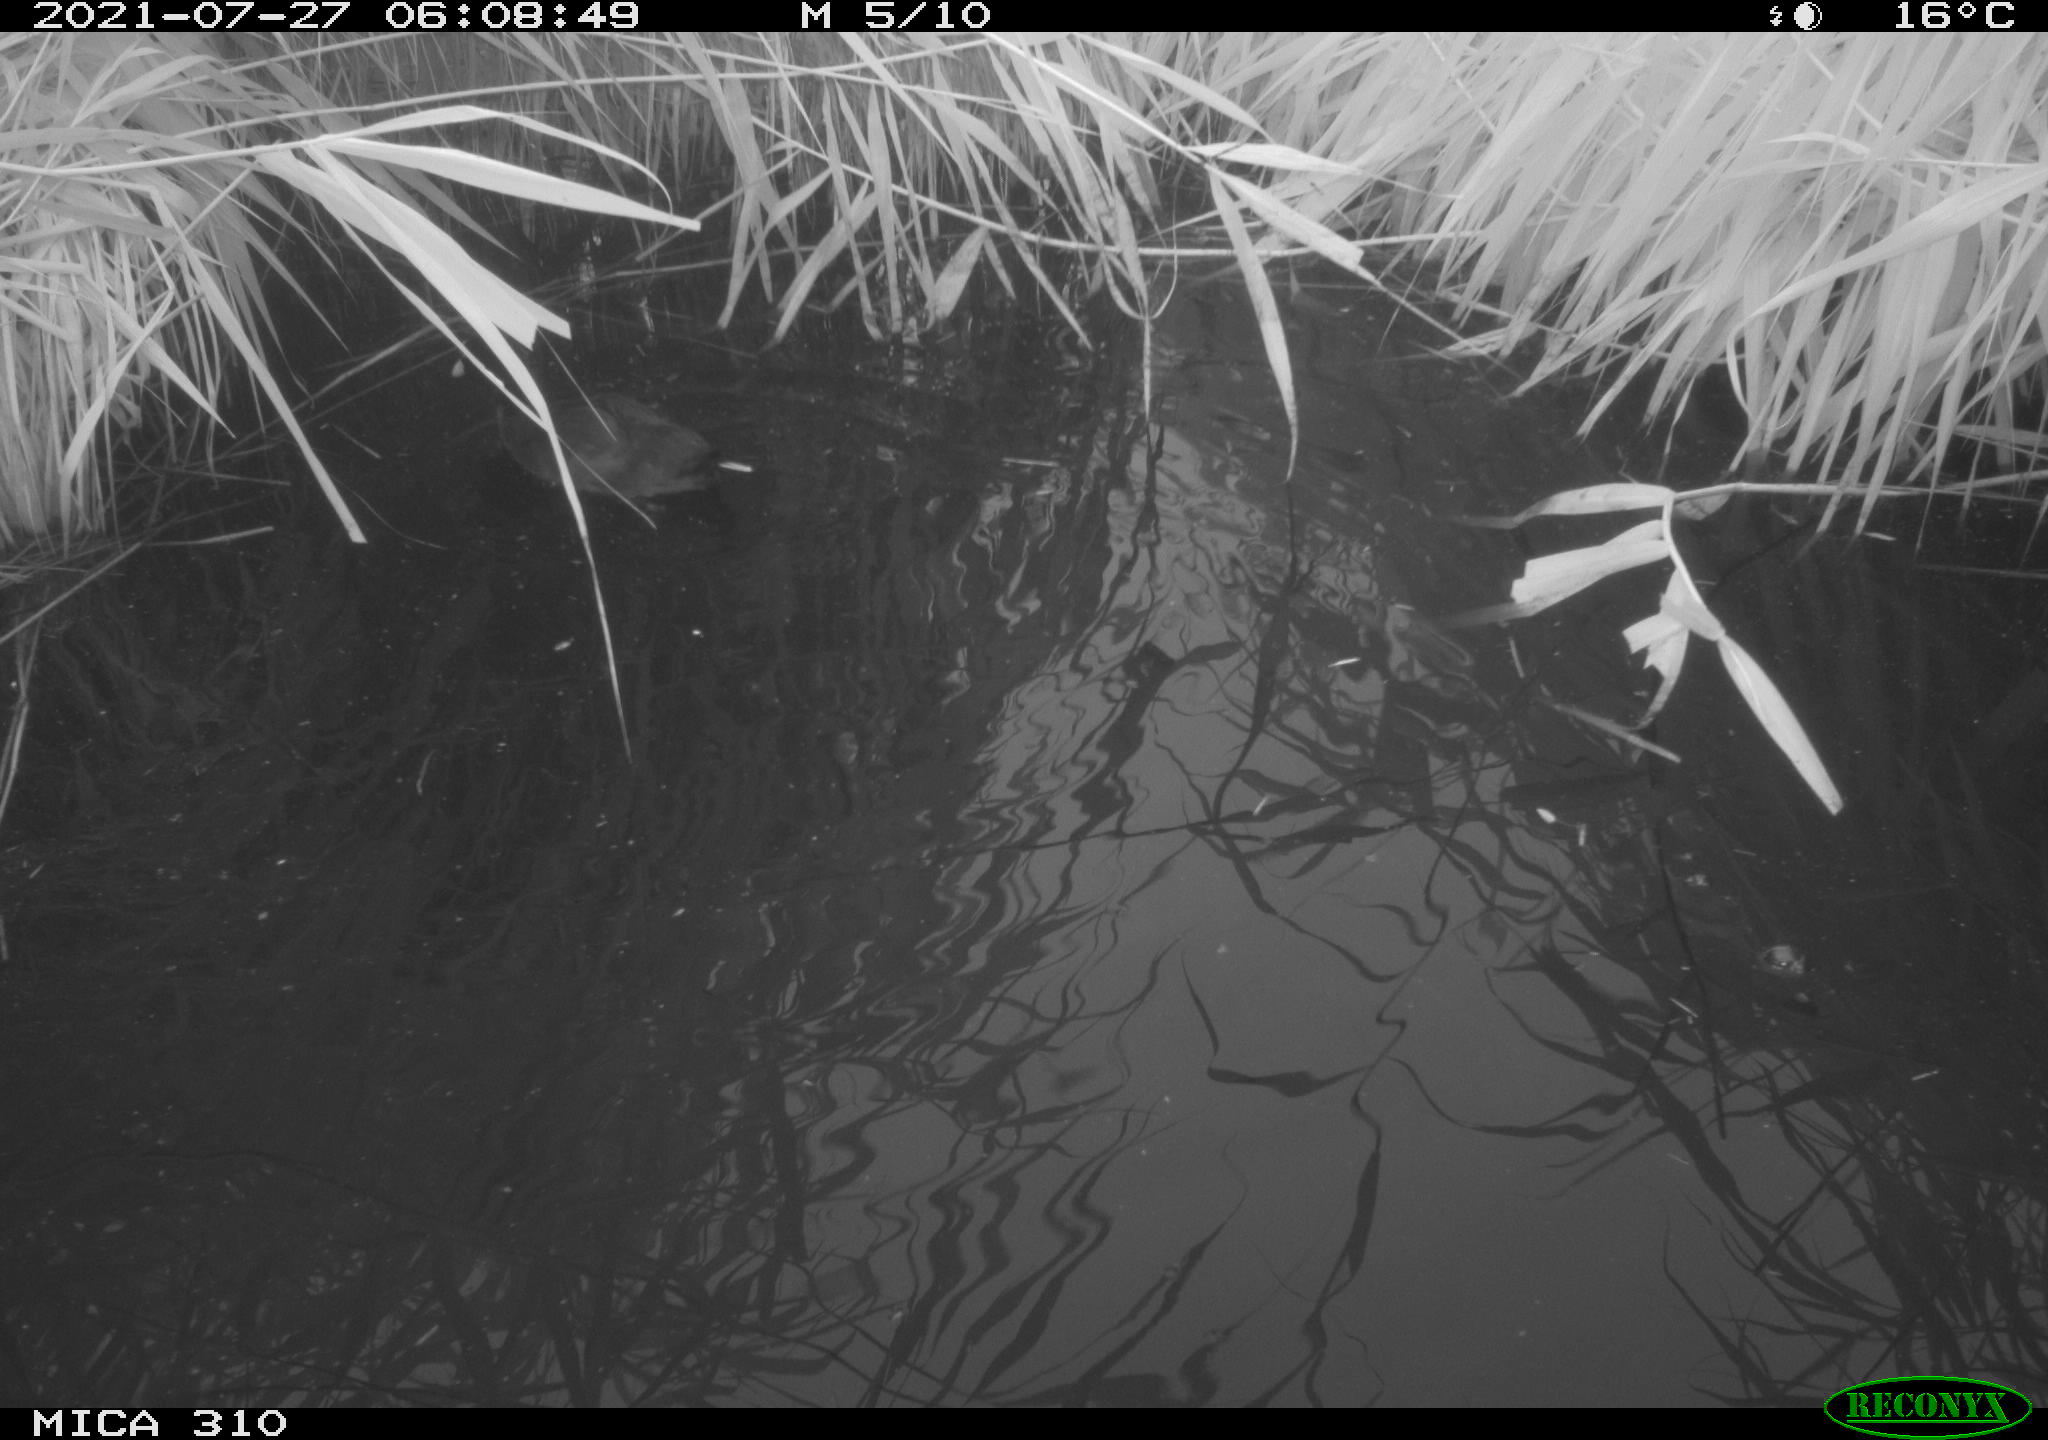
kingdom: Animalia
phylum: Chordata
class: Aves
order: Gruiformes
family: Rallidae
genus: Fulica
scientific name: Fulica atra
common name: Eurasian coot
